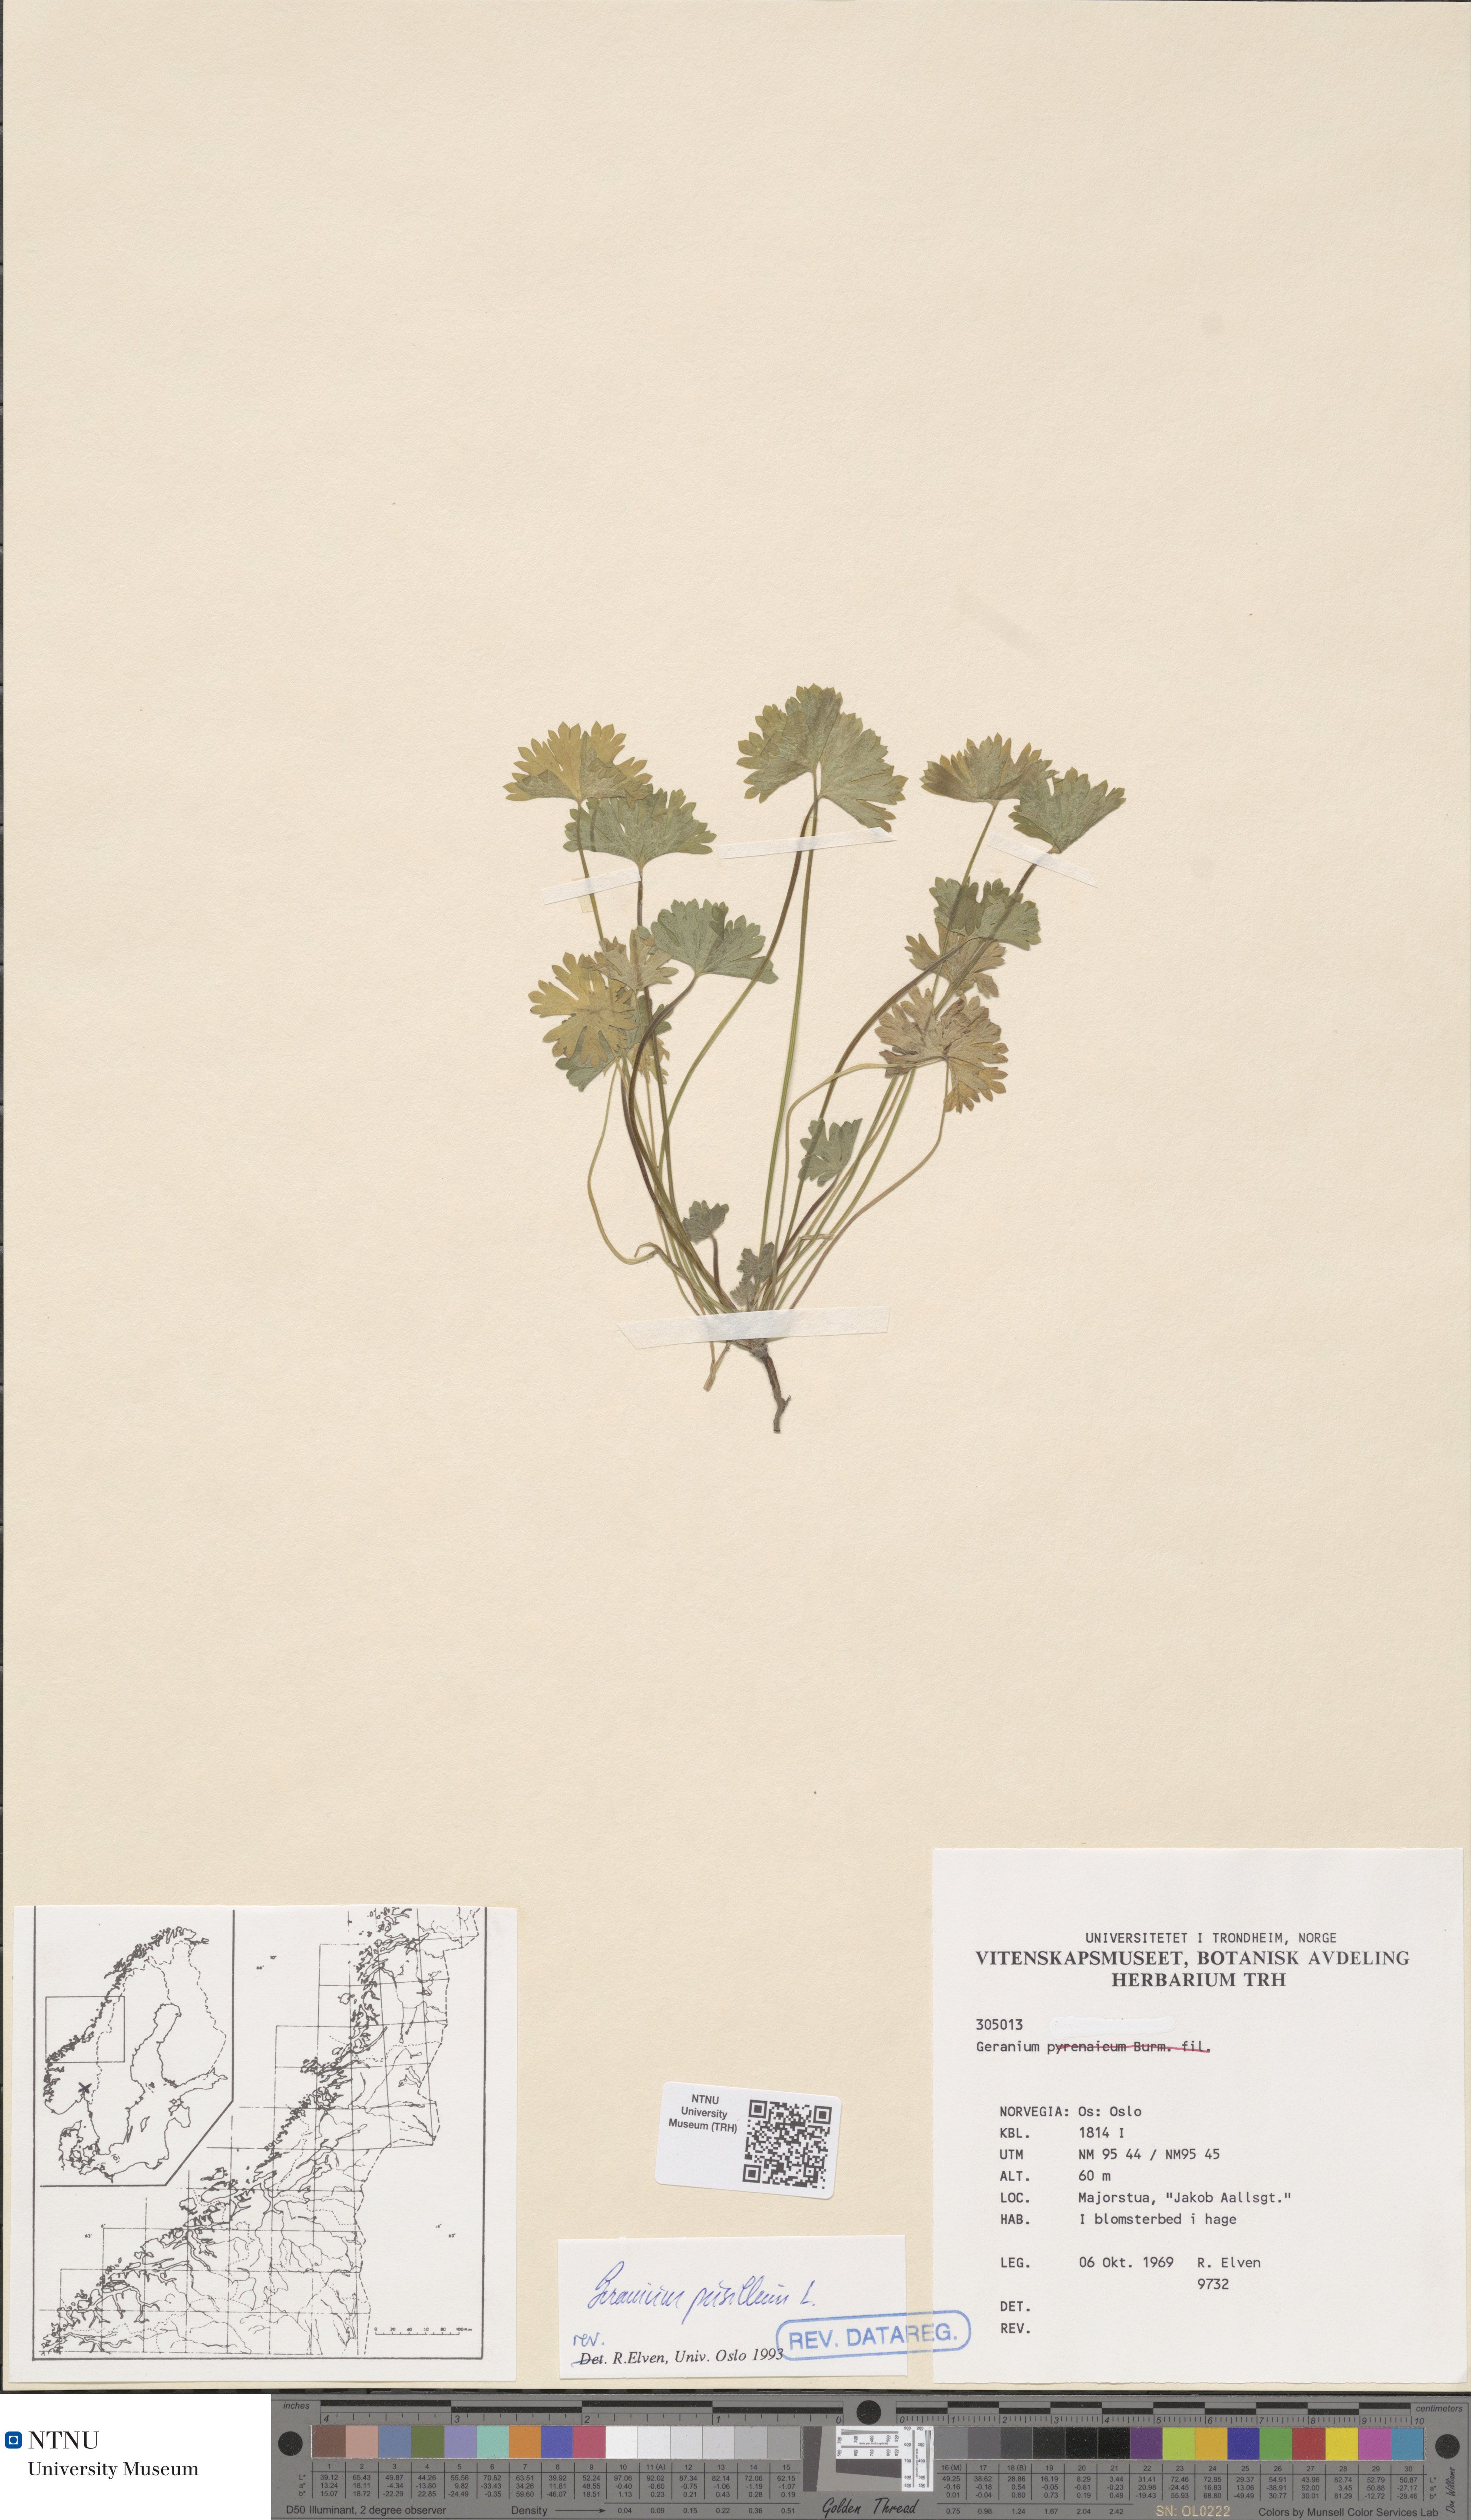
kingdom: Plantae
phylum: Tracheophyta
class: Magnoliopsida
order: Geraniales
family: Geraniaceae
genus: Geranium
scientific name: Geranium pusillum
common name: Small geranium
